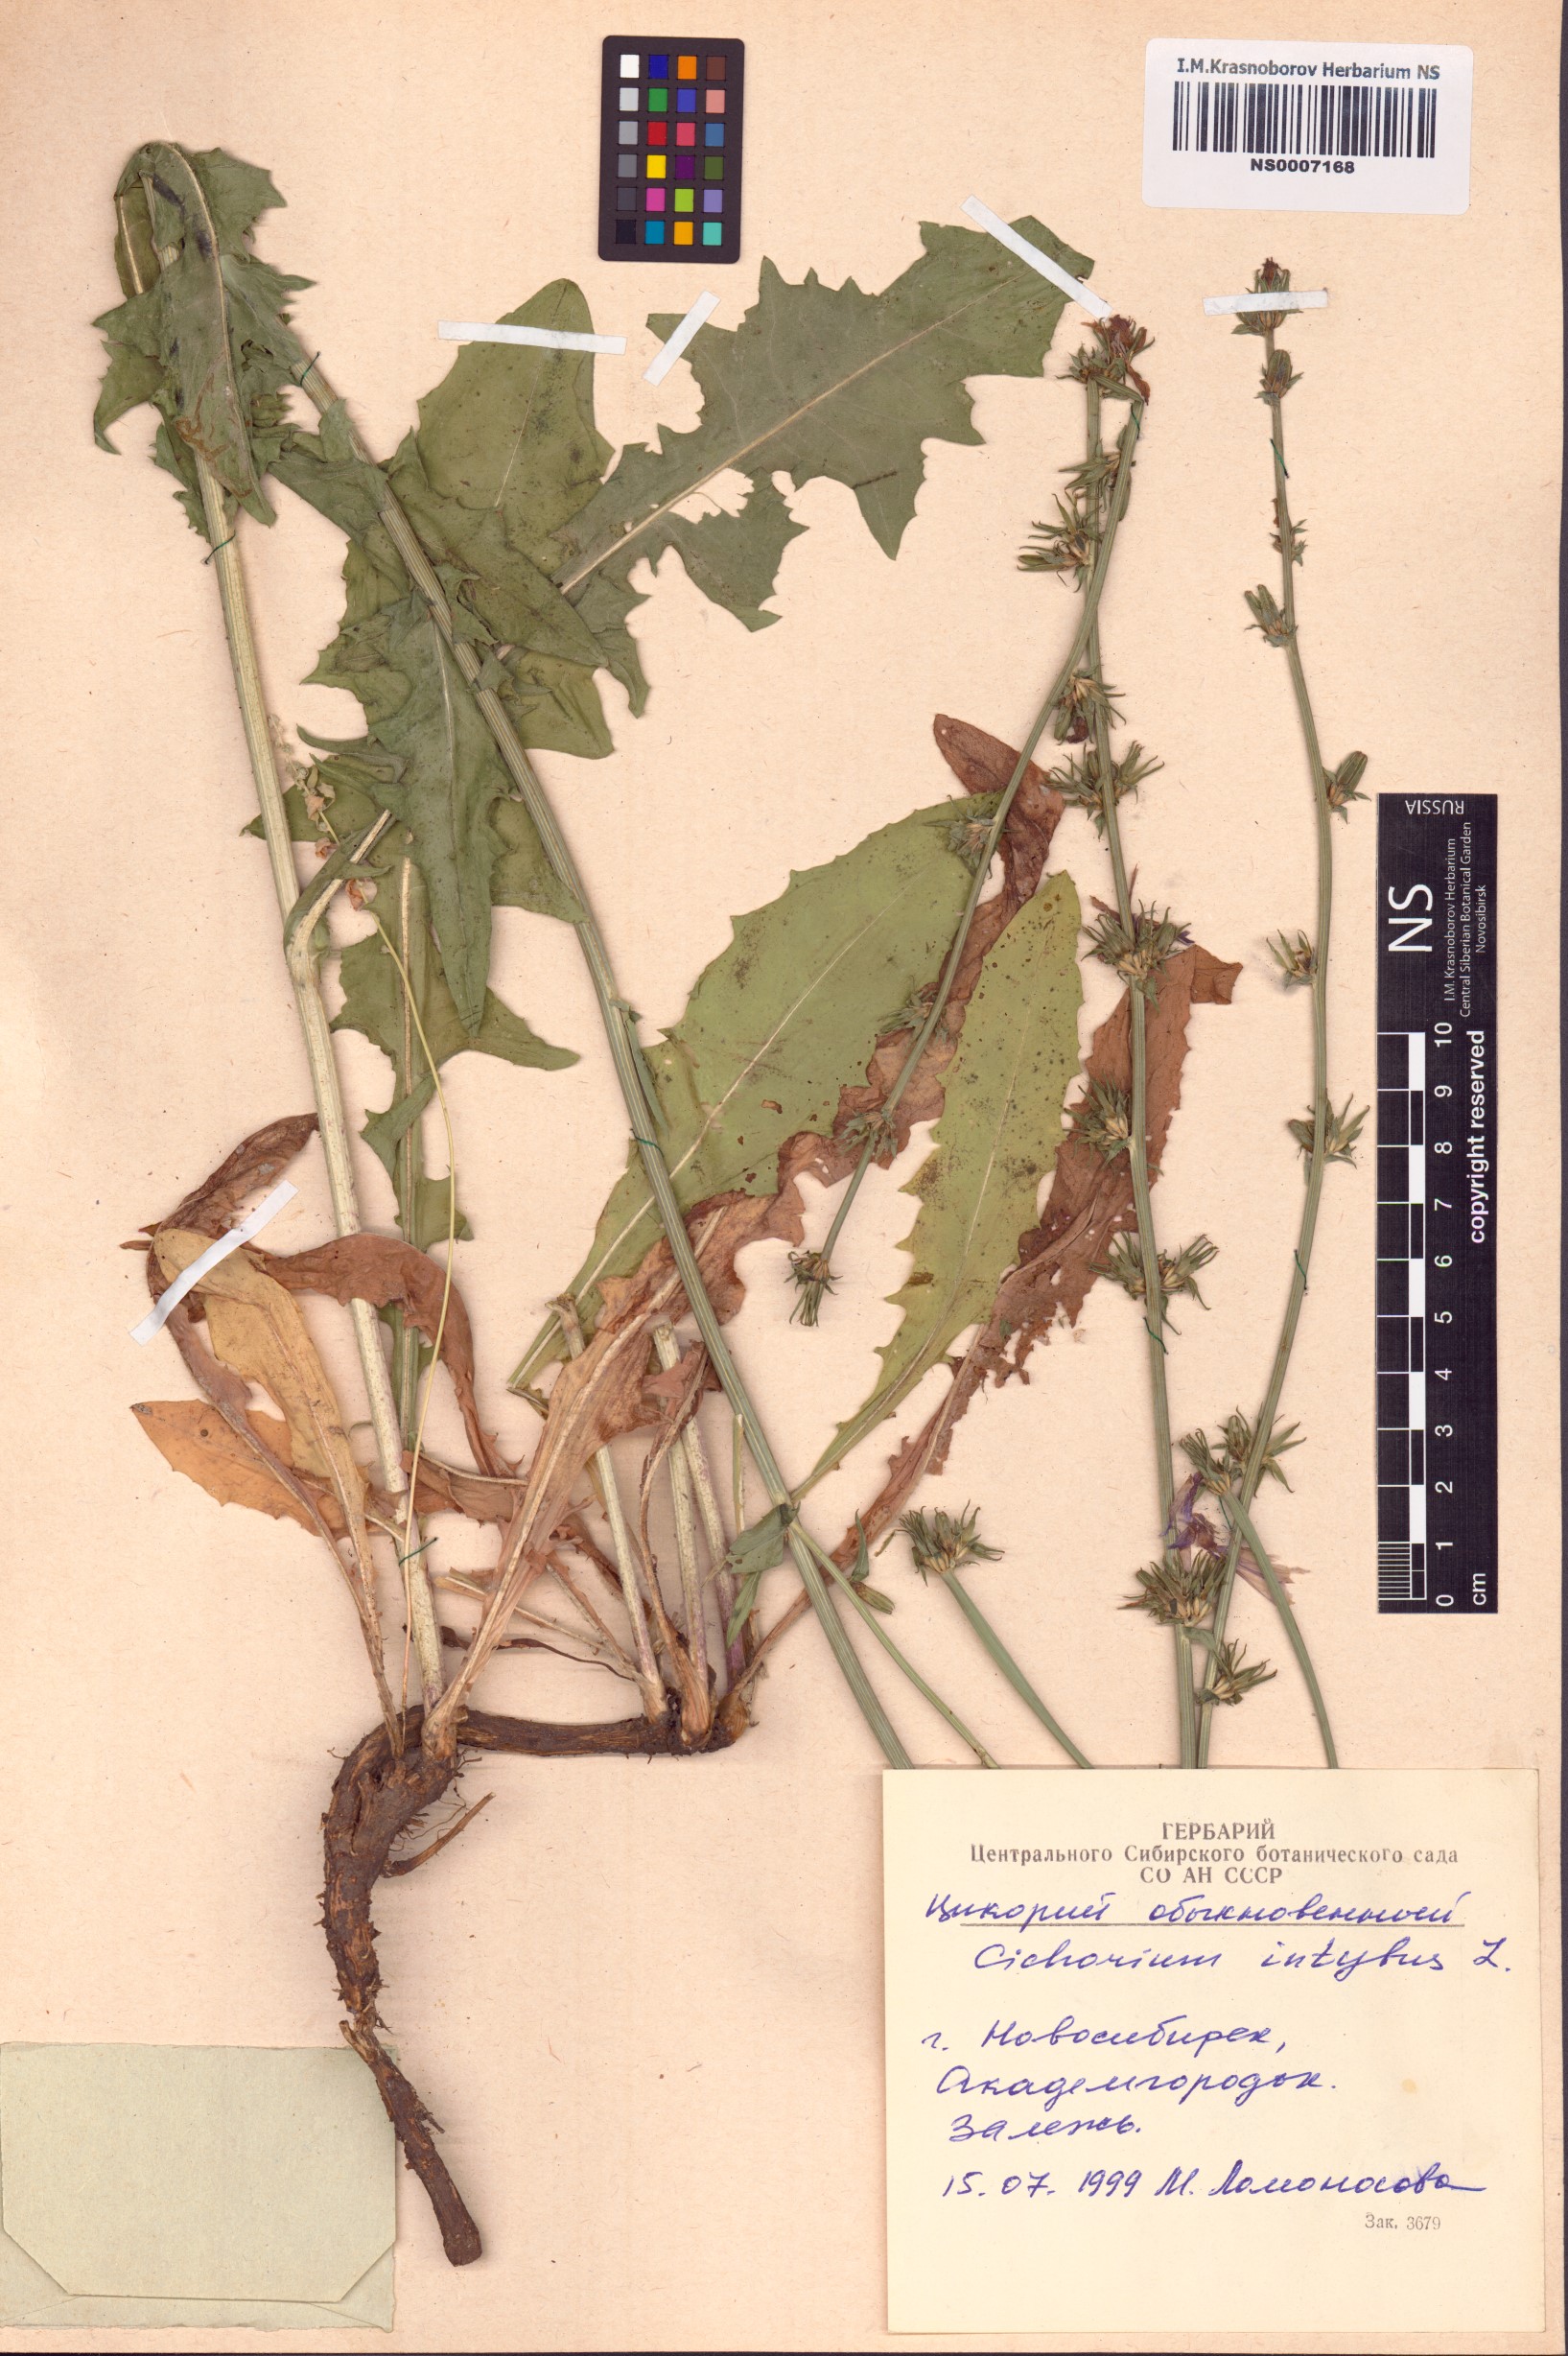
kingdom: Plantae
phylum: Tracheophyta
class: Magnoliopsida
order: Asterales
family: Asteraceae
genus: Cichorium
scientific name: Cichorium intybus
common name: Chicory
